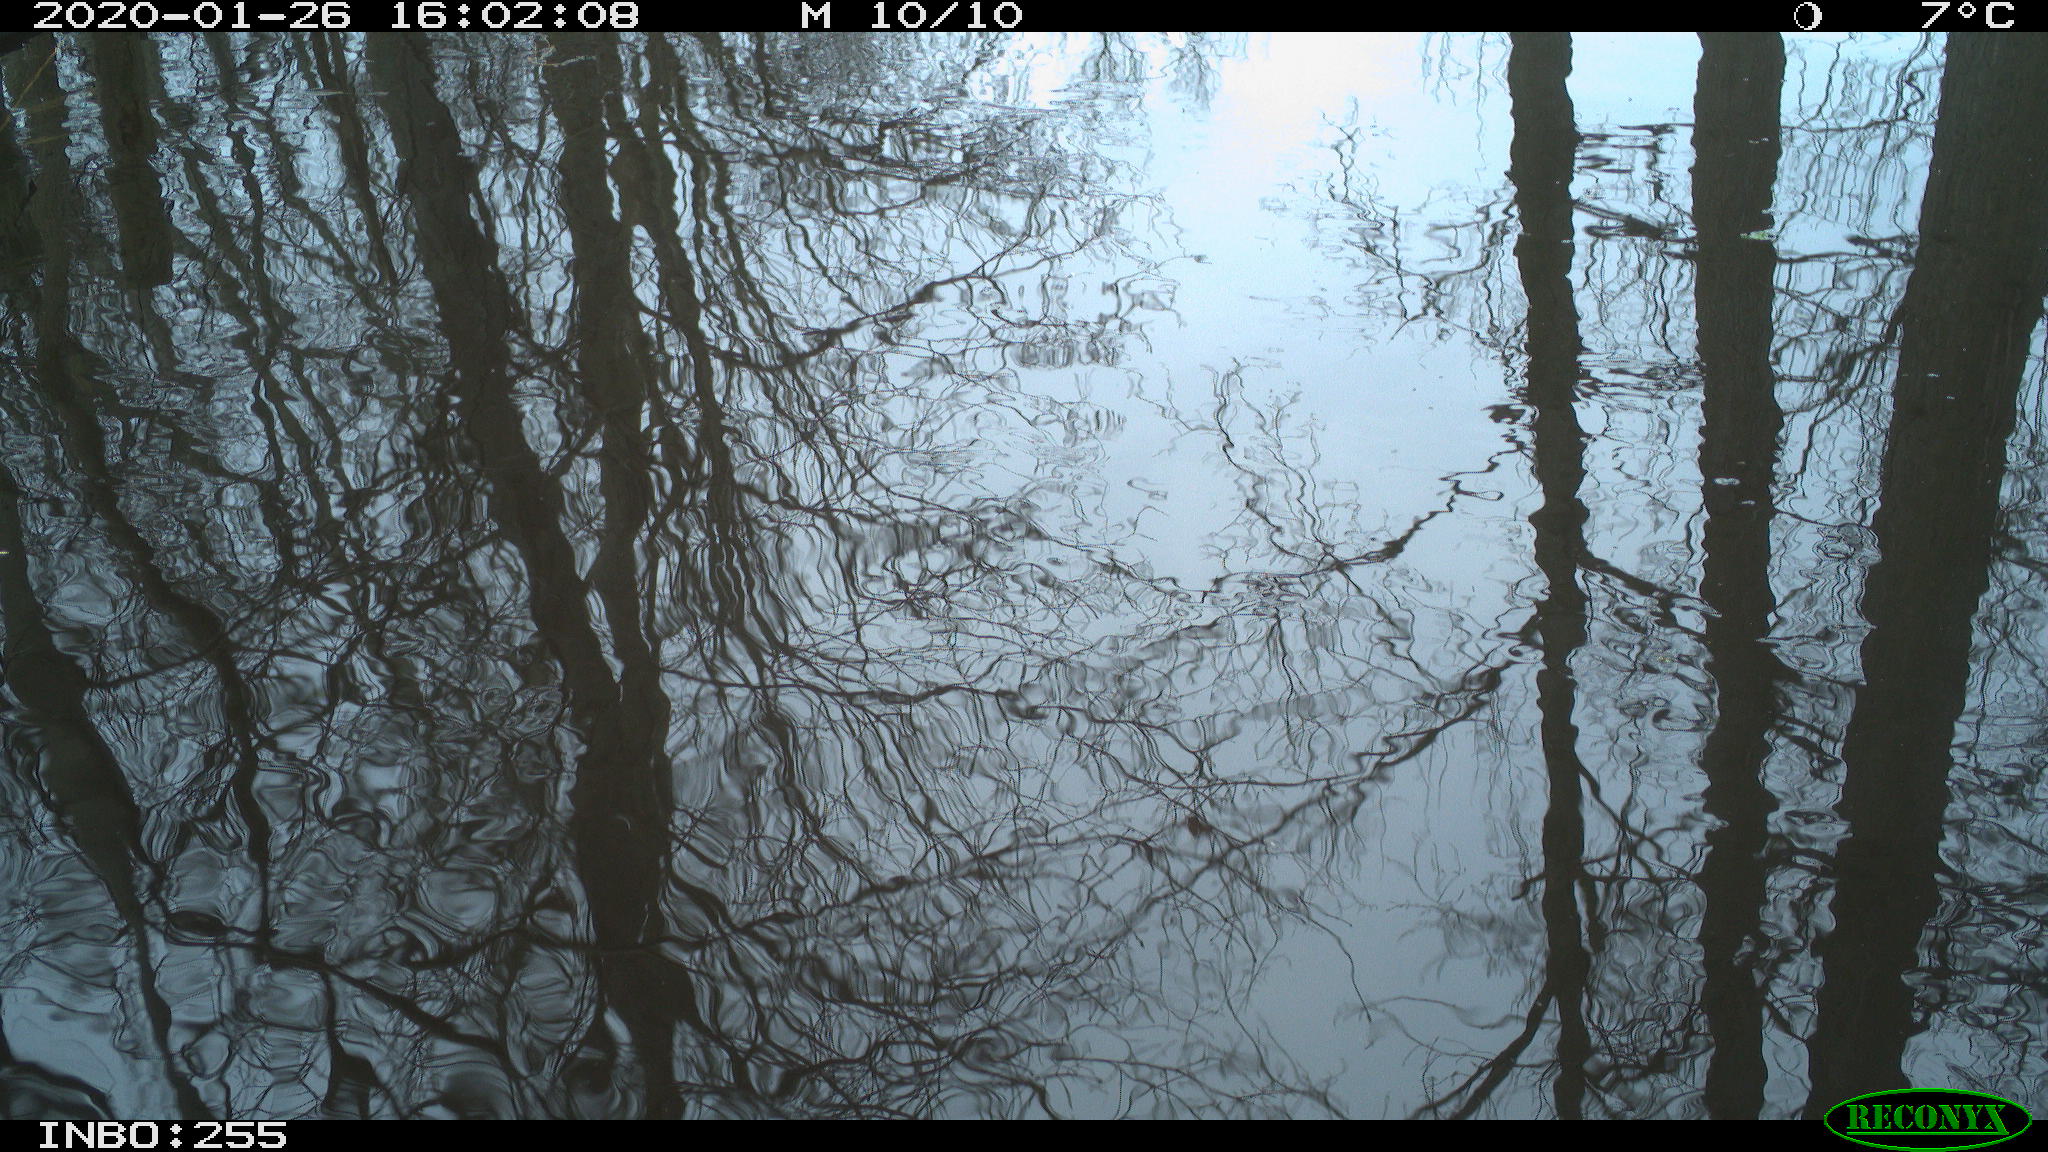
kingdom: Animalia
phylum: Chordata
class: Aves
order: Gruiformes
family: Rallidae
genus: Fulica
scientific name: Fulica atra
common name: Eurasian coot
